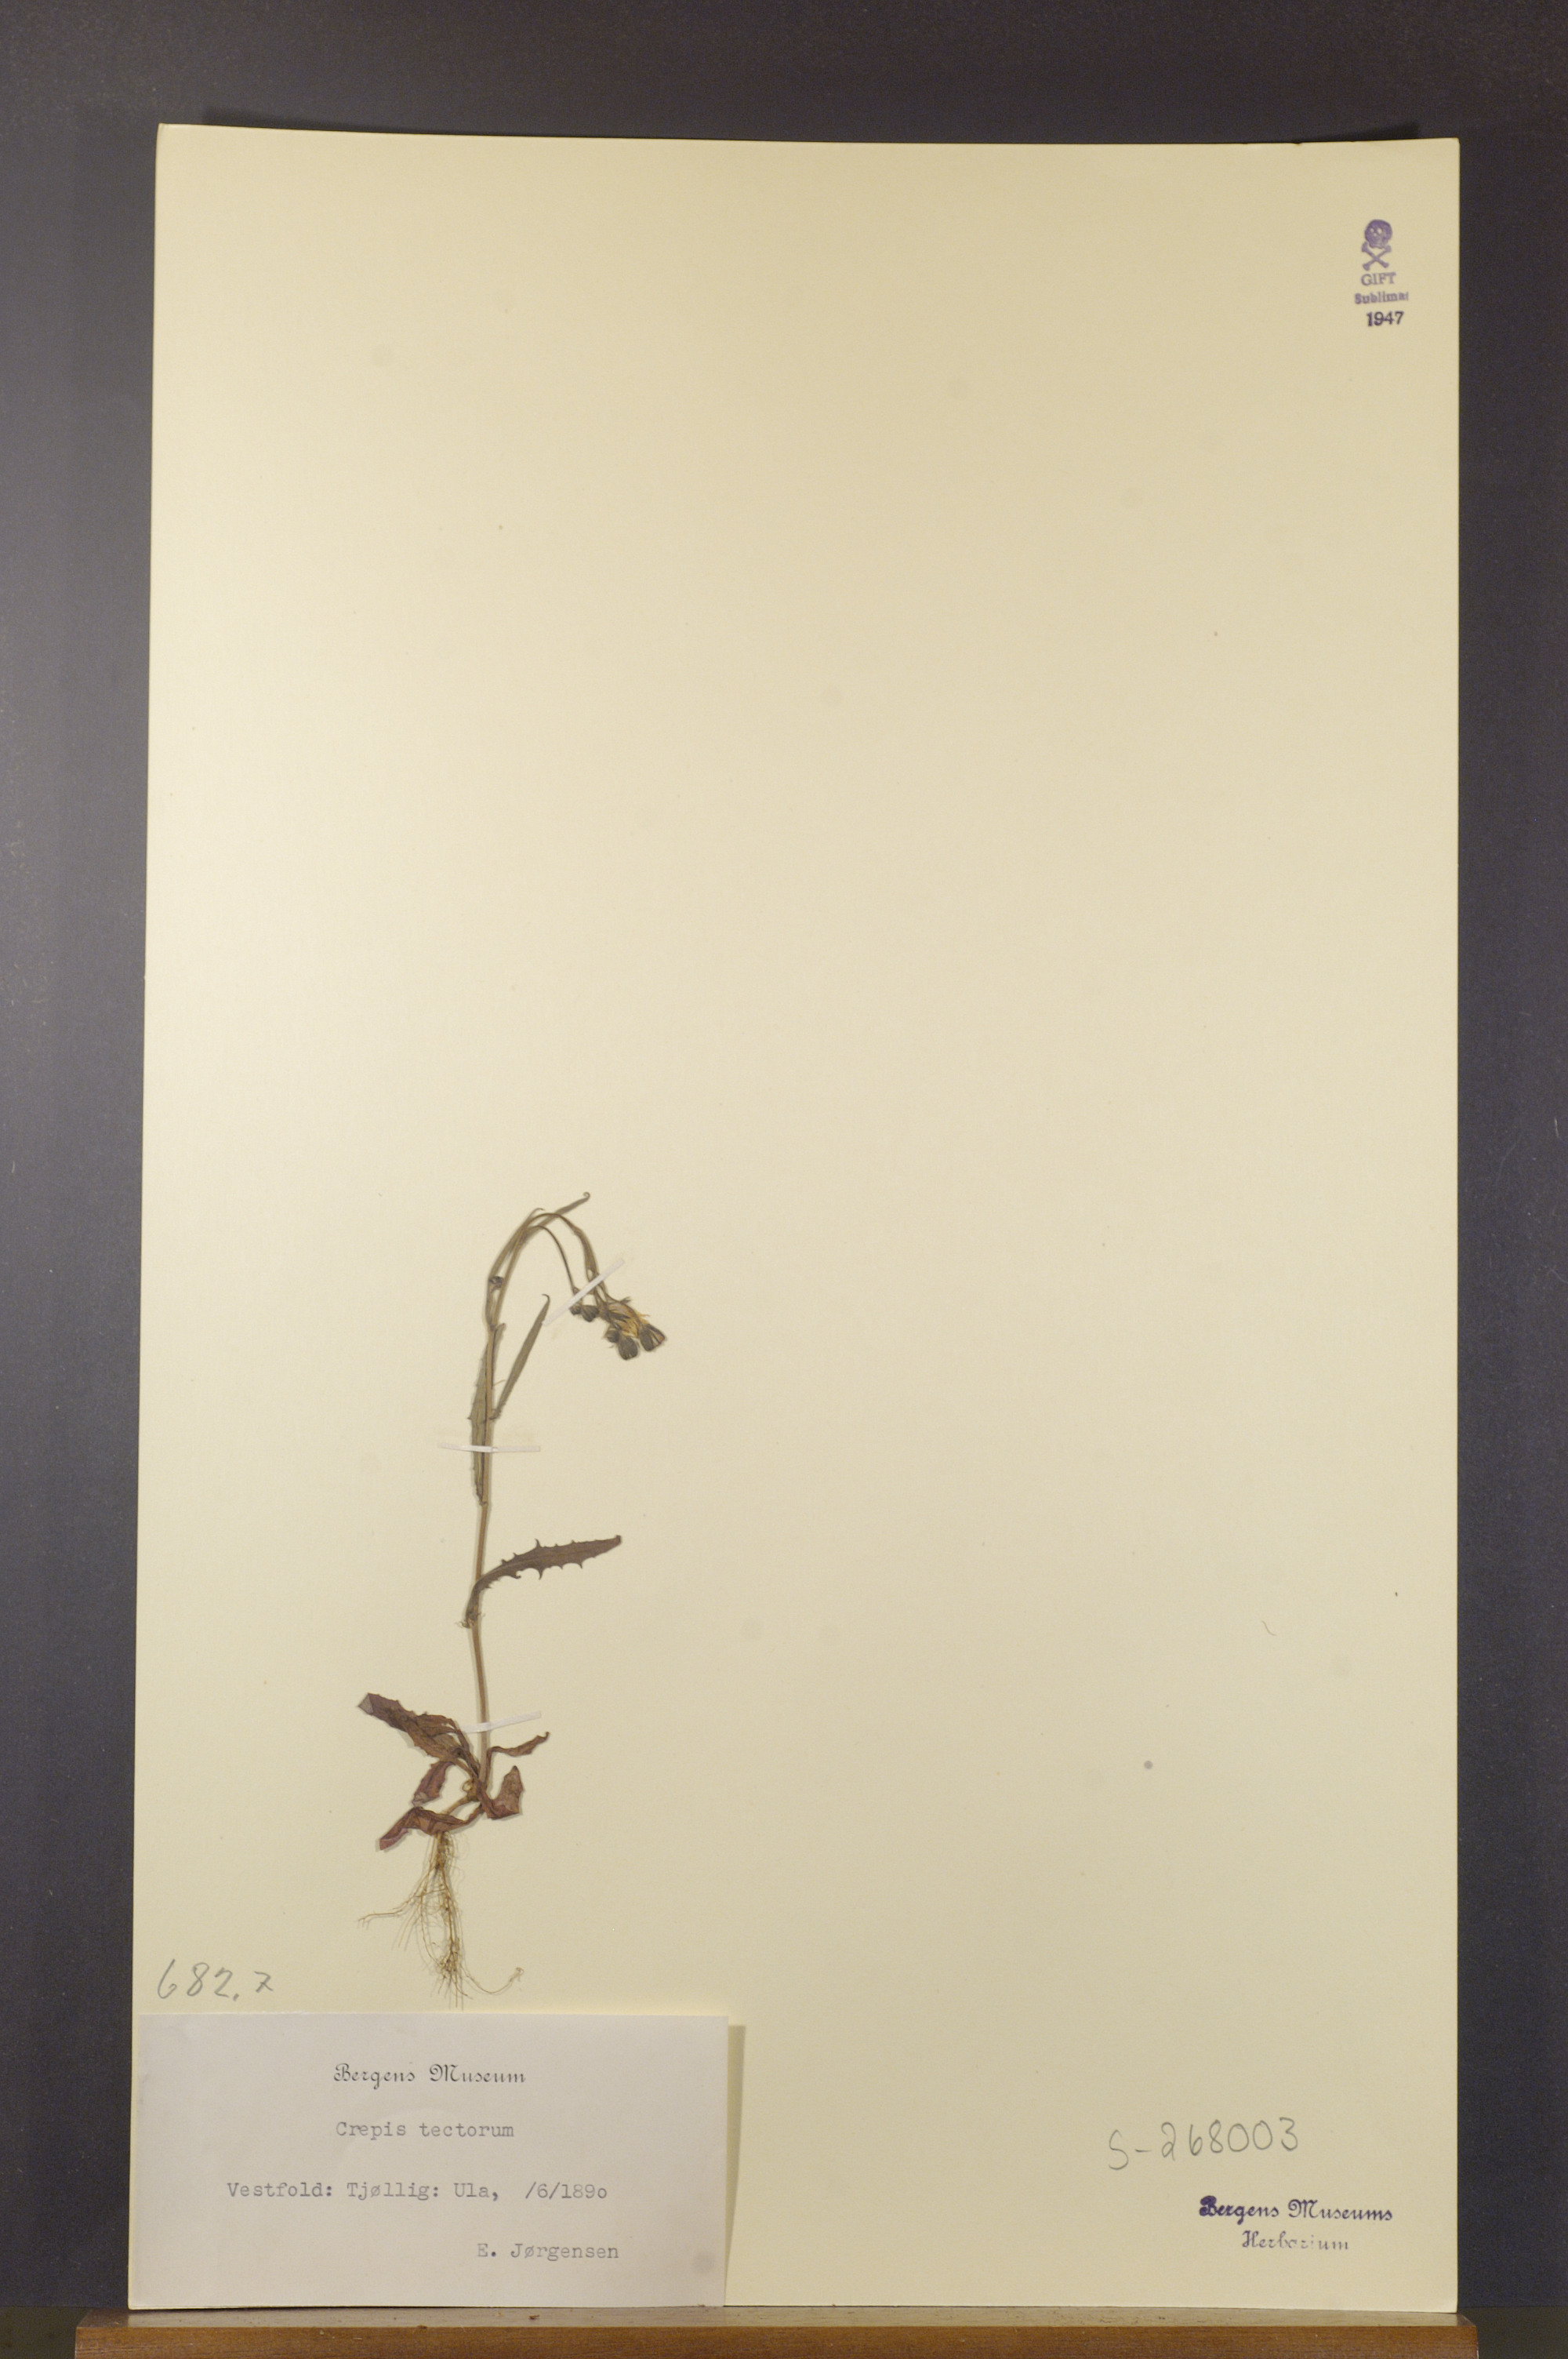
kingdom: Plantae
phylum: Tracheophyta
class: Magnoliopsida
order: Asterales
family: Asteraceae
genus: Crepis
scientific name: Crepis tectorum
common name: Narrow-leaved hawk's-beard
